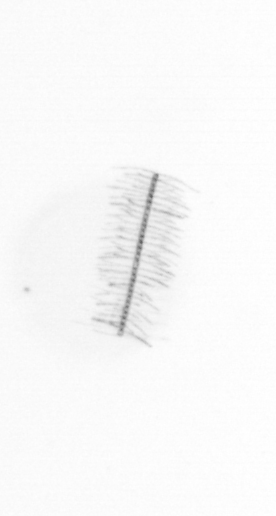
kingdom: Chromista
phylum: Ochrophyta
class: Bacillariophyceae
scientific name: Bacillariophyceae
